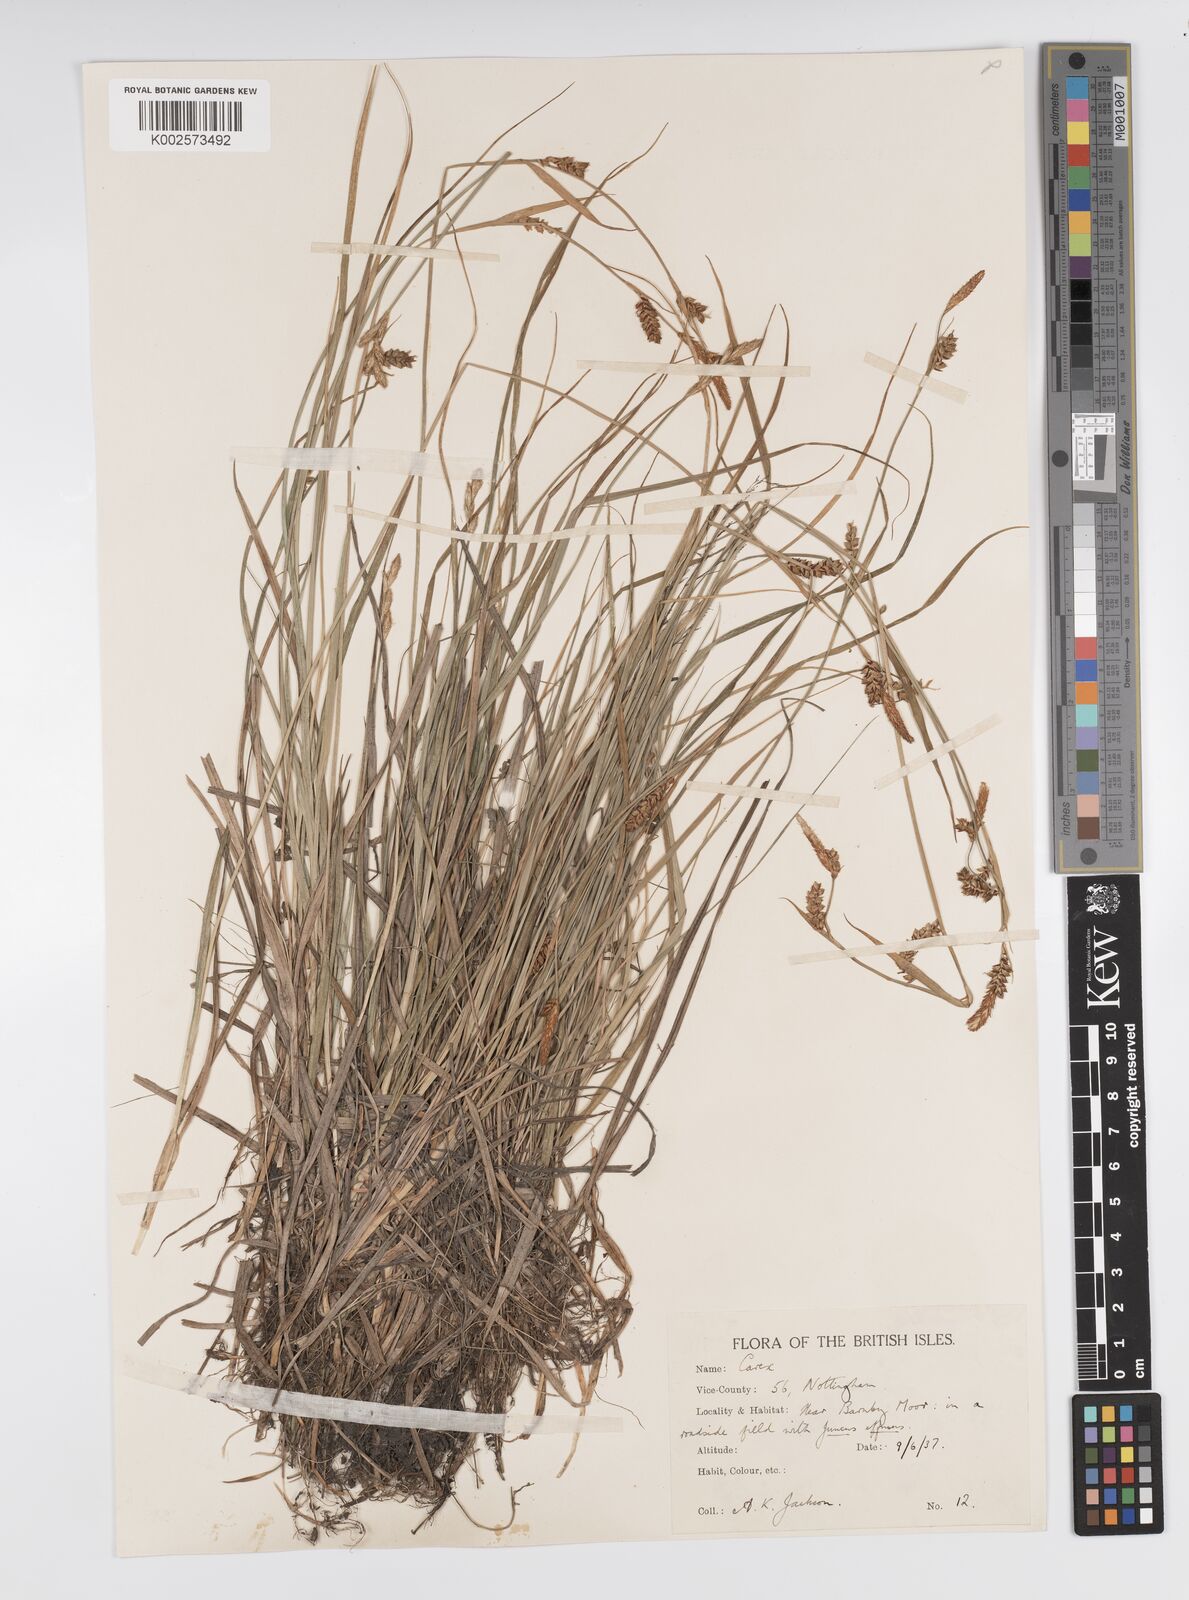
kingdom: Plantae
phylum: Tracheophyta
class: Liliopsida
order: Poales
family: Cyperaceae
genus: Carex
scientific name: Carex panicea
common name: Carnation sedge
